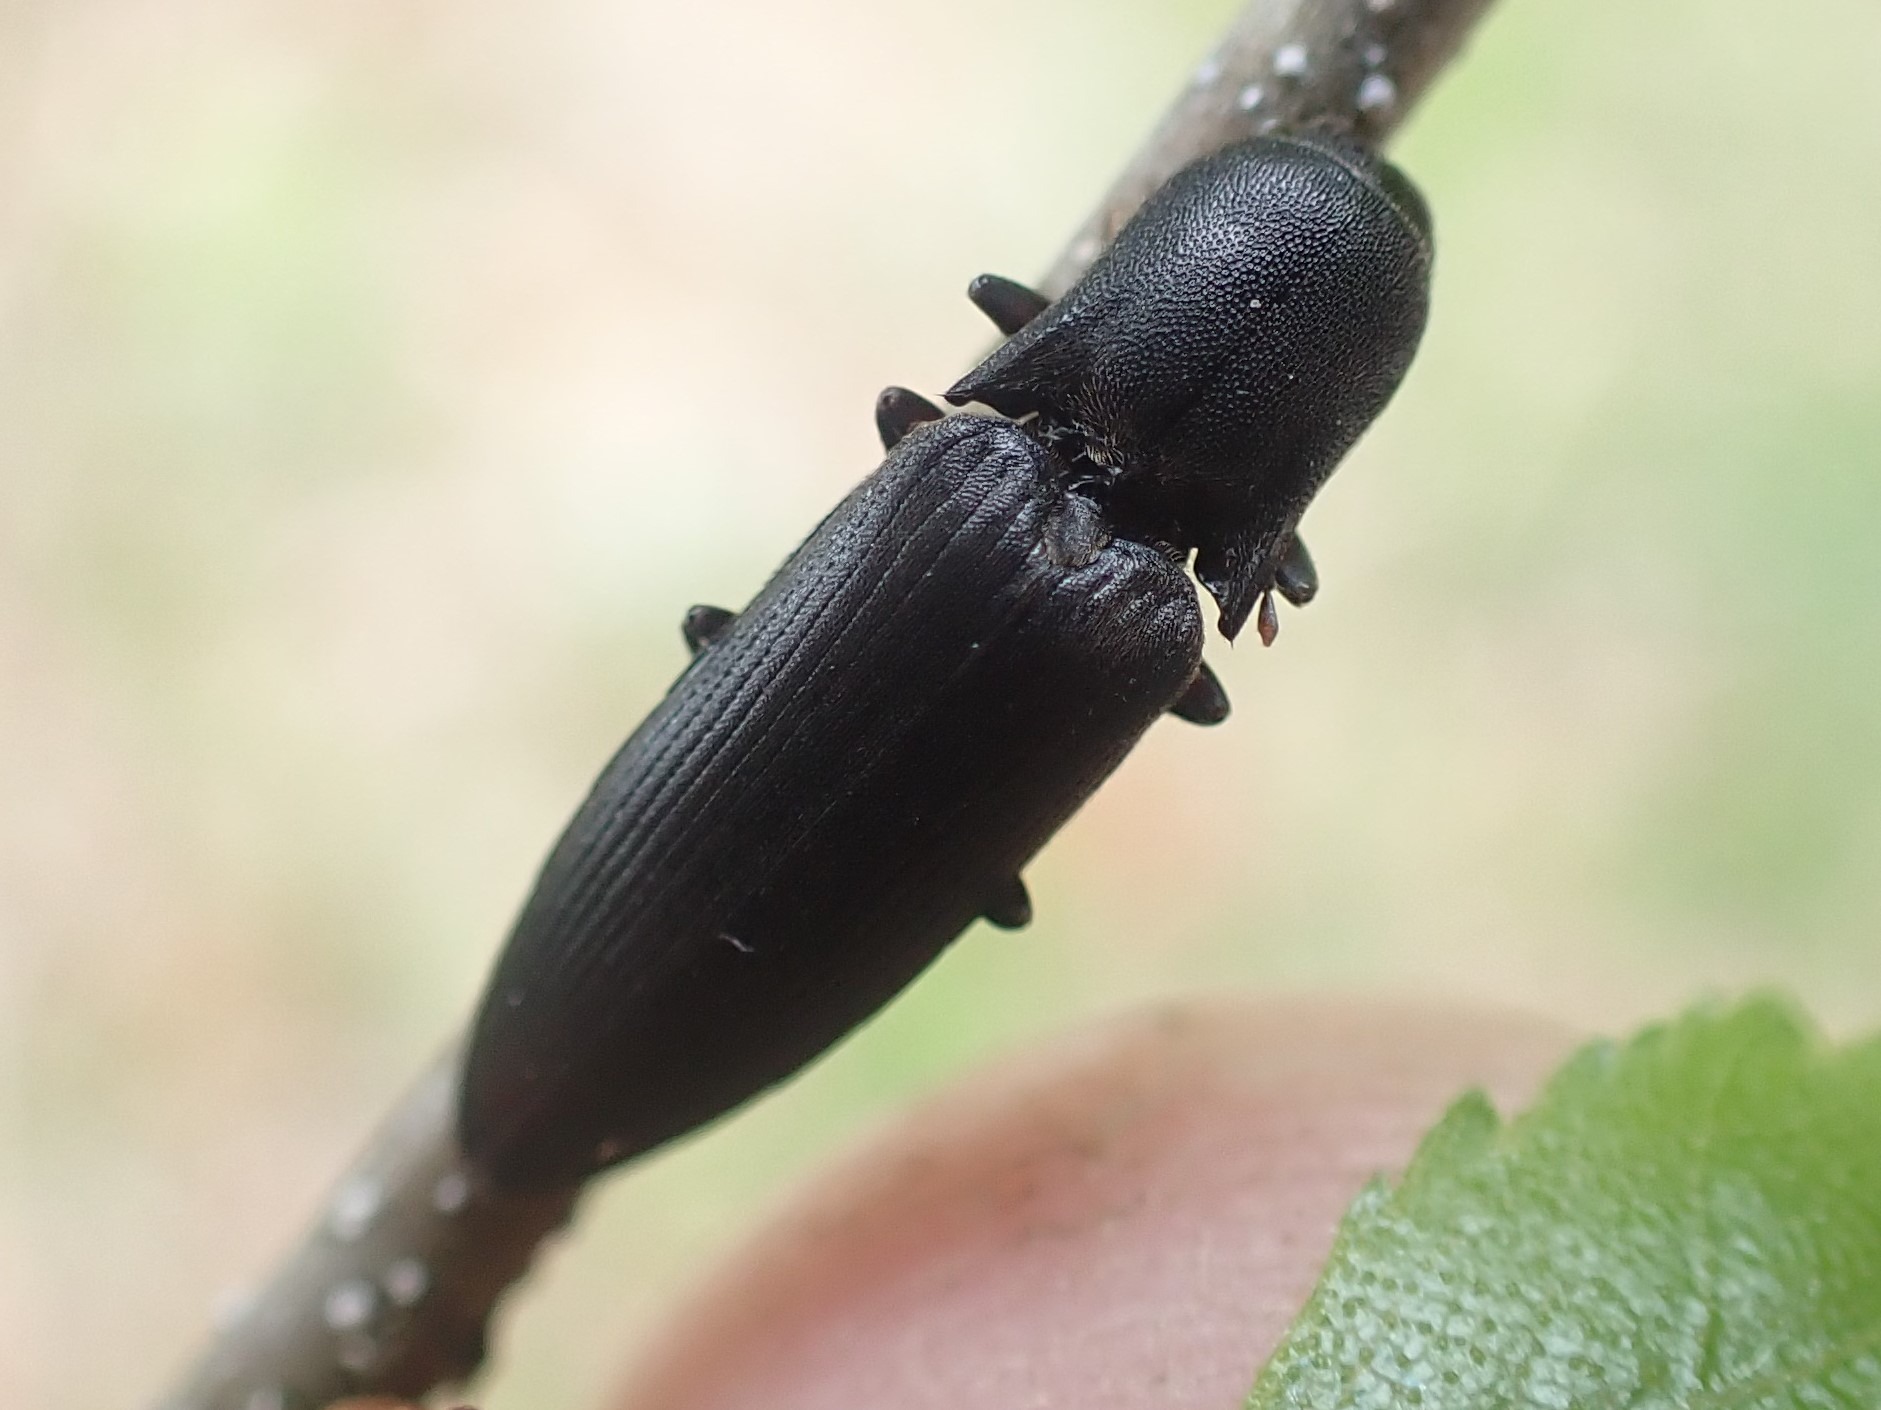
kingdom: Animalia
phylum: Arthropoda
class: Insecta
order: Coleoptera
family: Elateridae
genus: Ectinus
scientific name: Ectinus aterrimus
